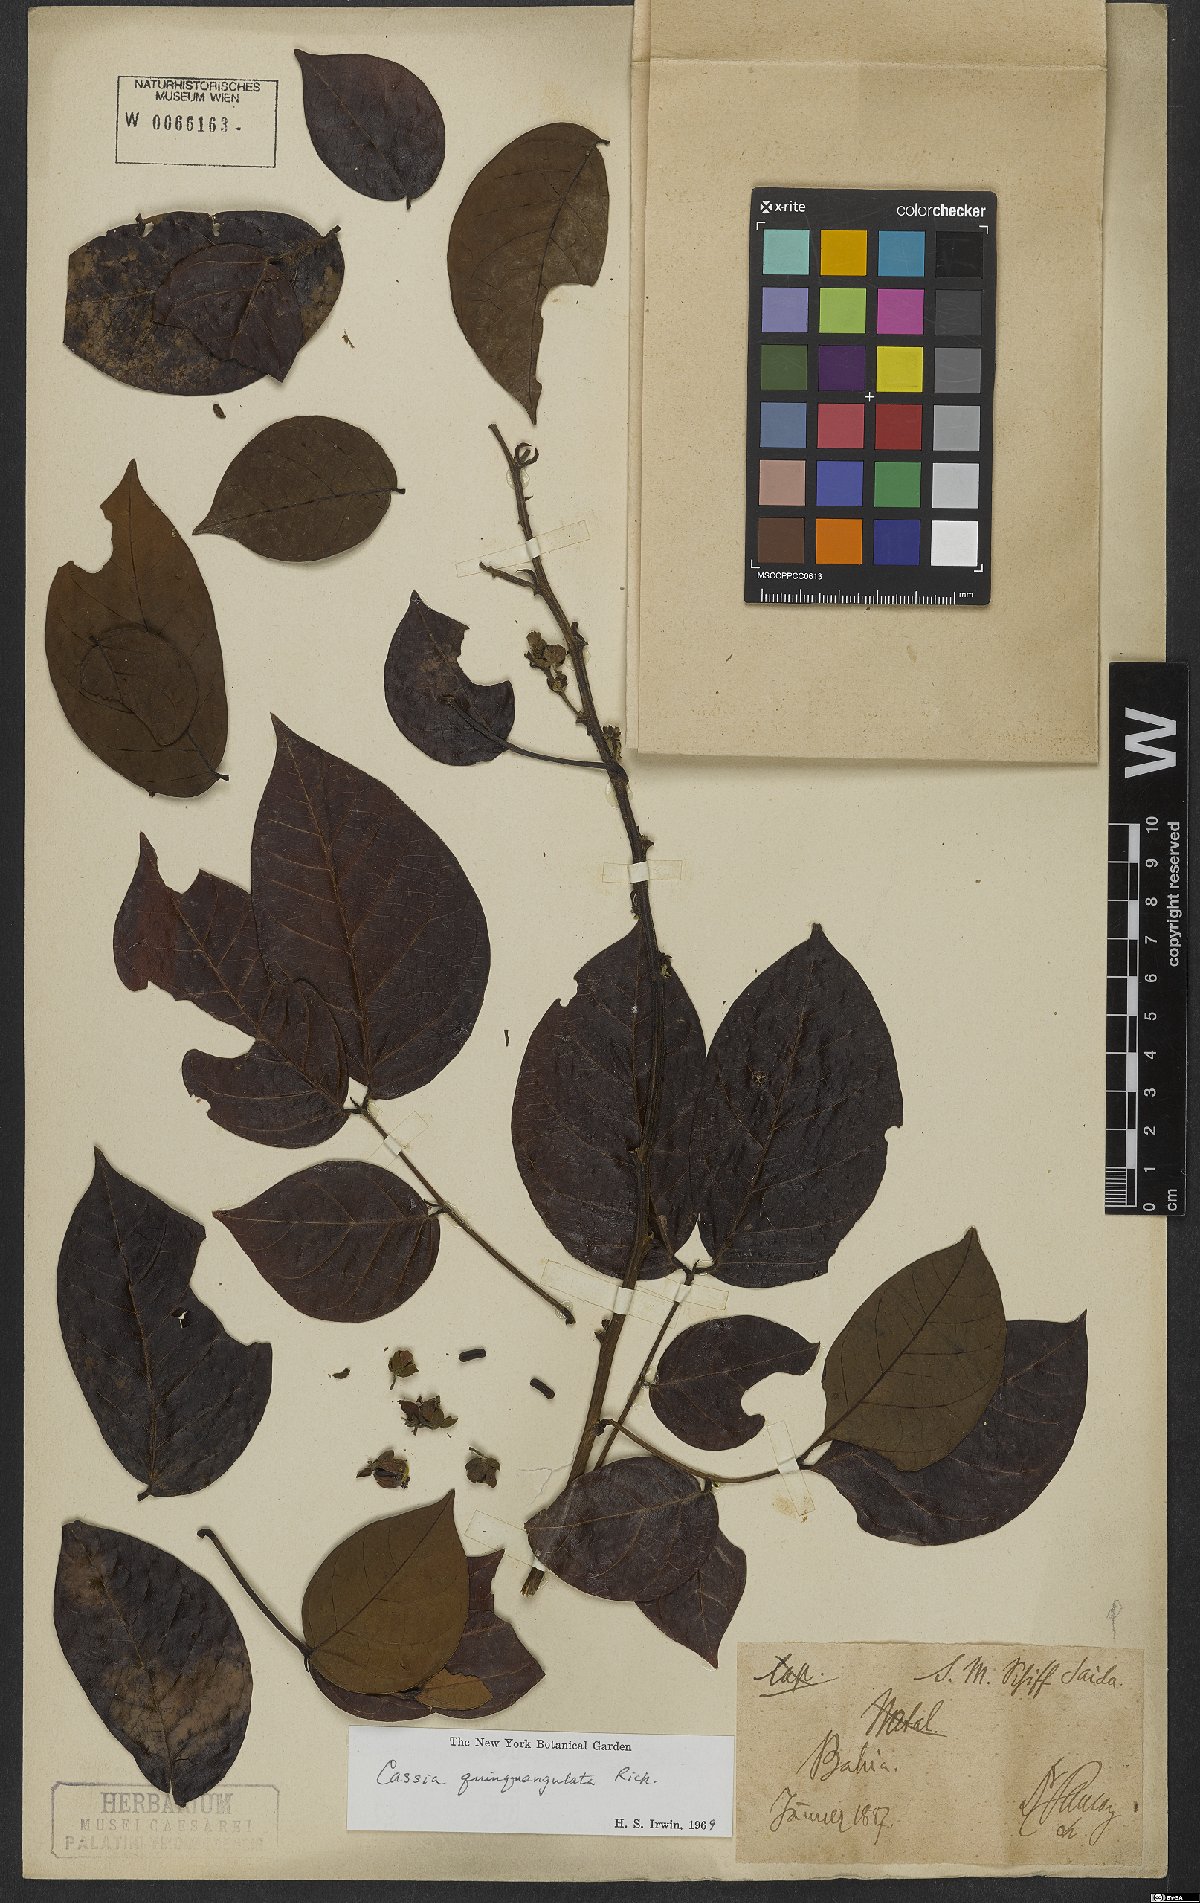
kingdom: Plantae
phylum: Tracheophyta
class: Magnoliopsida
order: Fabales
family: Fabaceae
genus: Senna
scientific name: Senna quinquangulata
